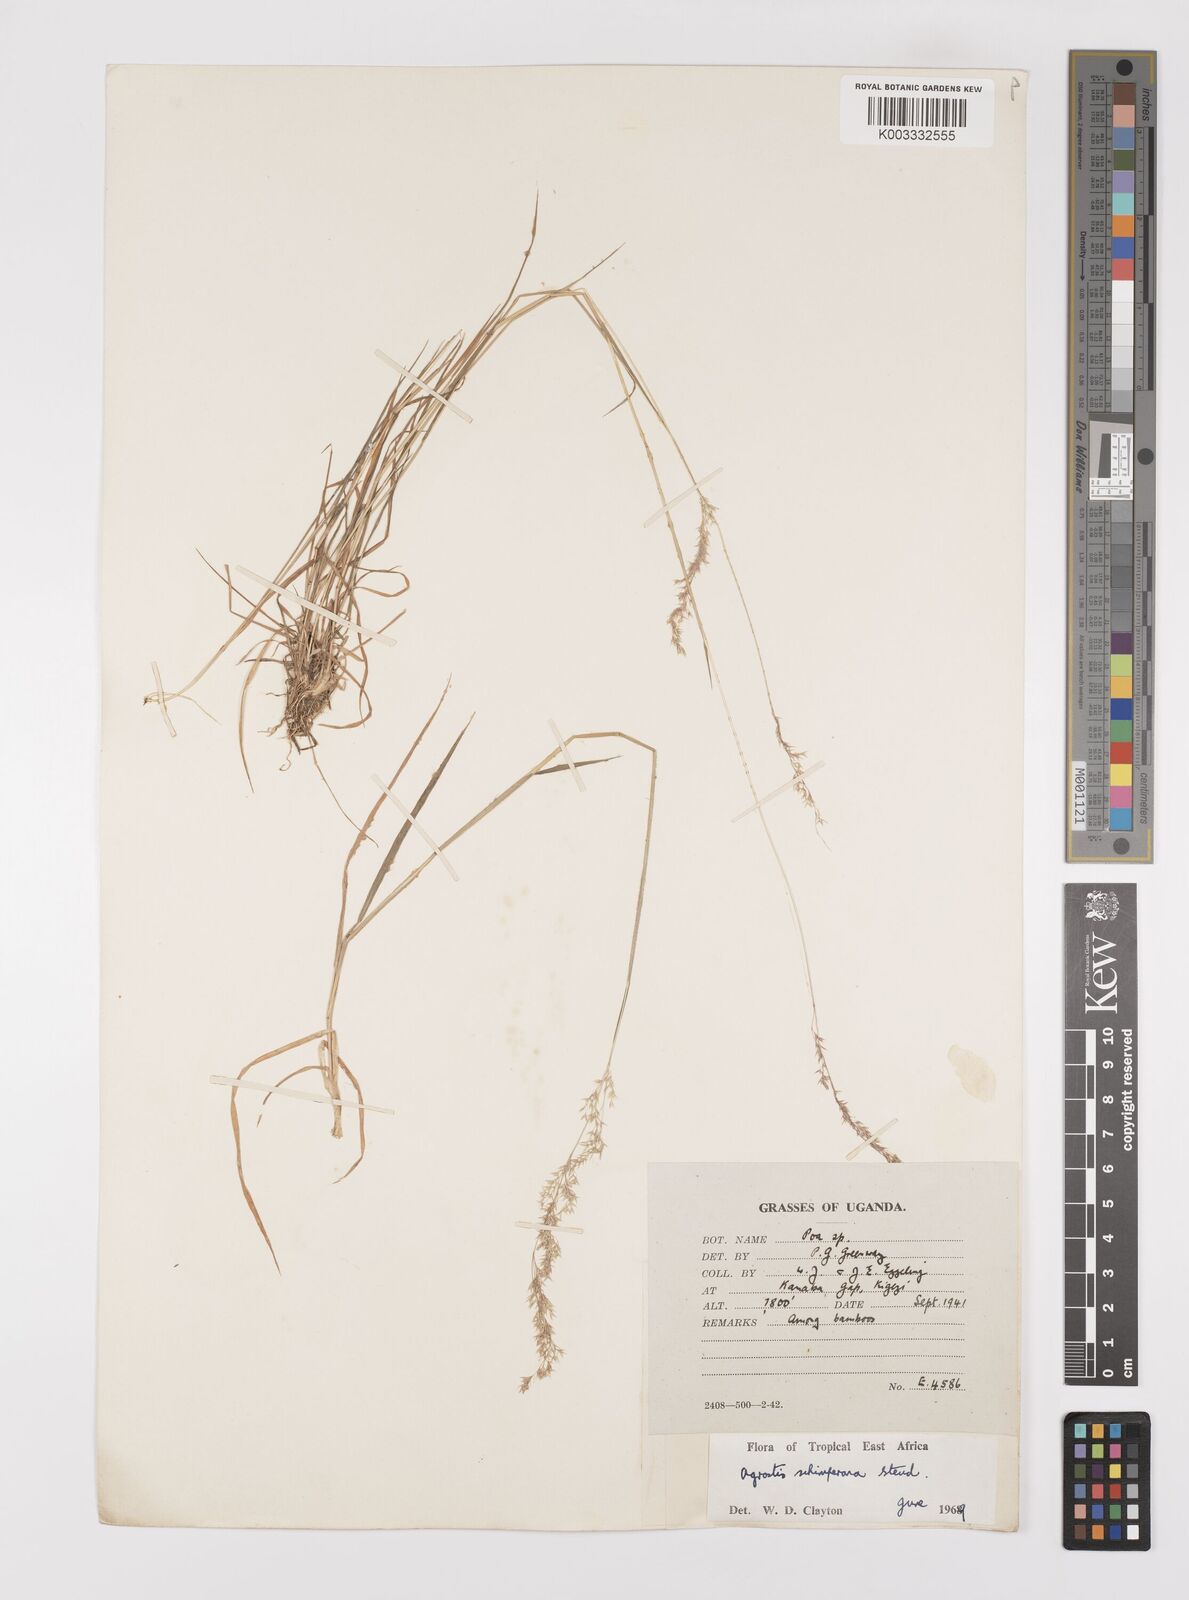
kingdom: Plantae
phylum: Tracheophyta
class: Liliopsida
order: Poales
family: Poaceae
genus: Polypogon
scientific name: Polypogon schimperianus
